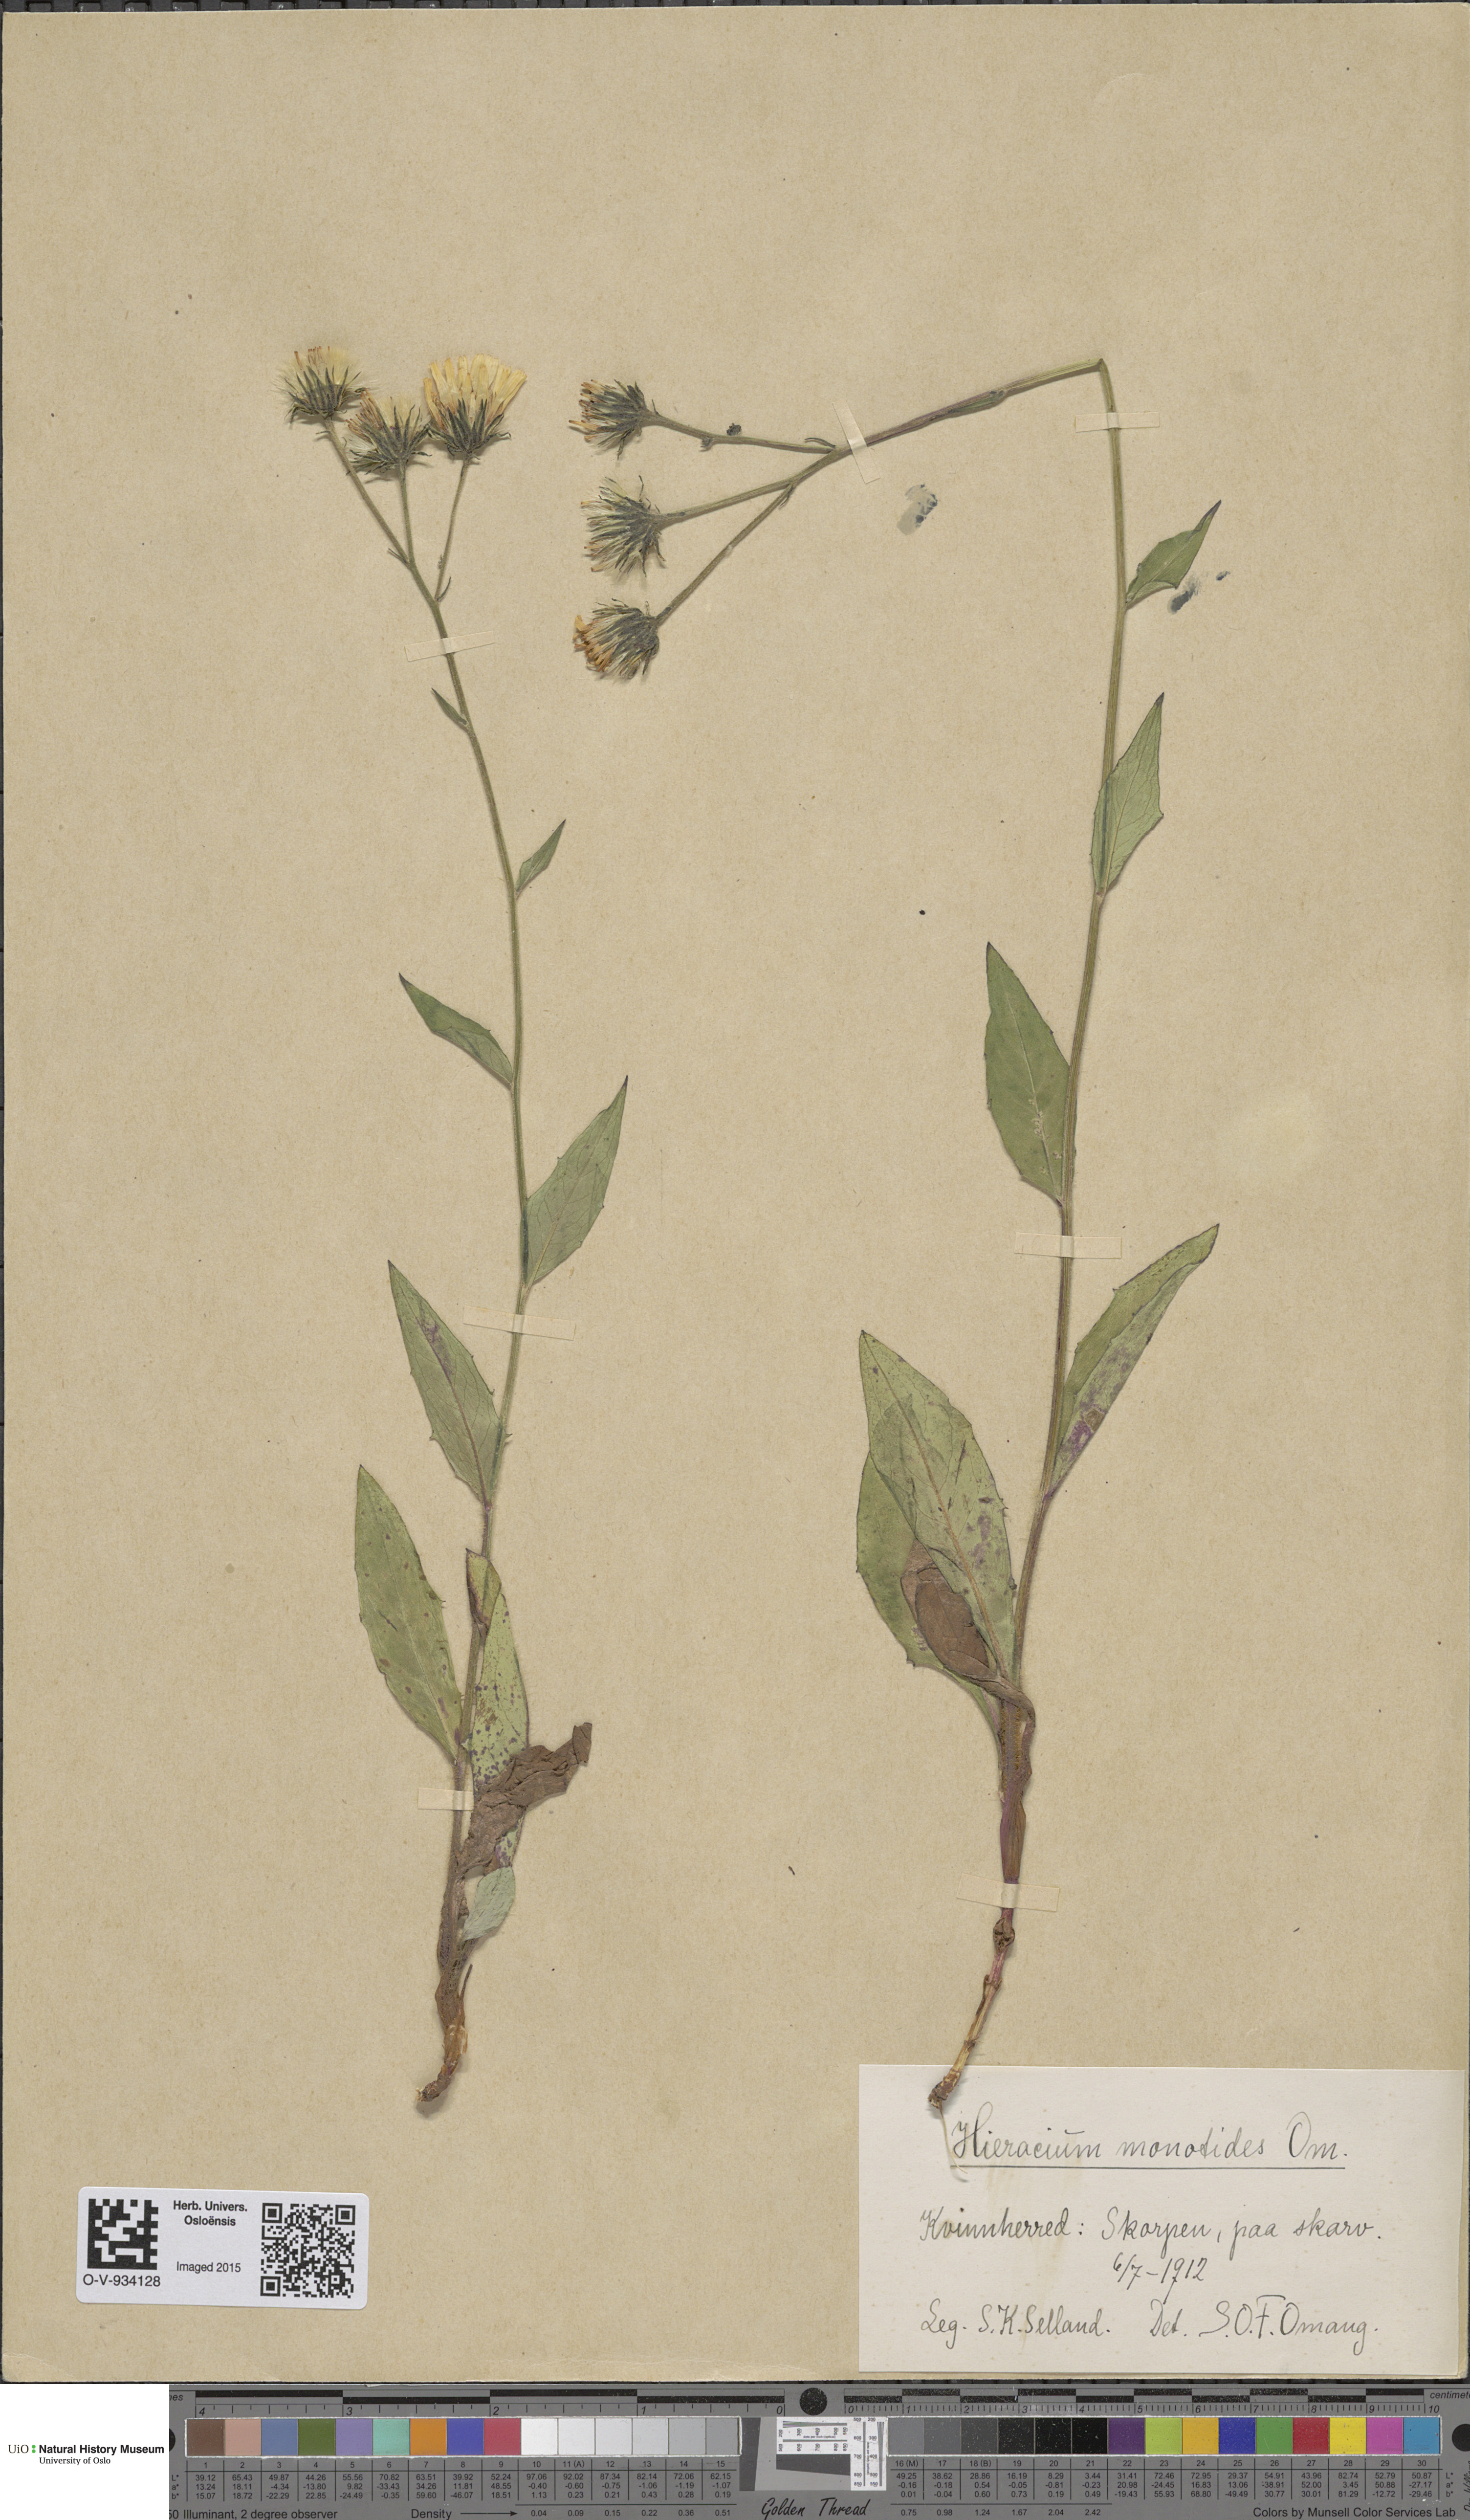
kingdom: Plantae
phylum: Tracheophyta
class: Magnoliopsida
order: Asterales
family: Asteraceae
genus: Hieracium
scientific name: Hieracium
